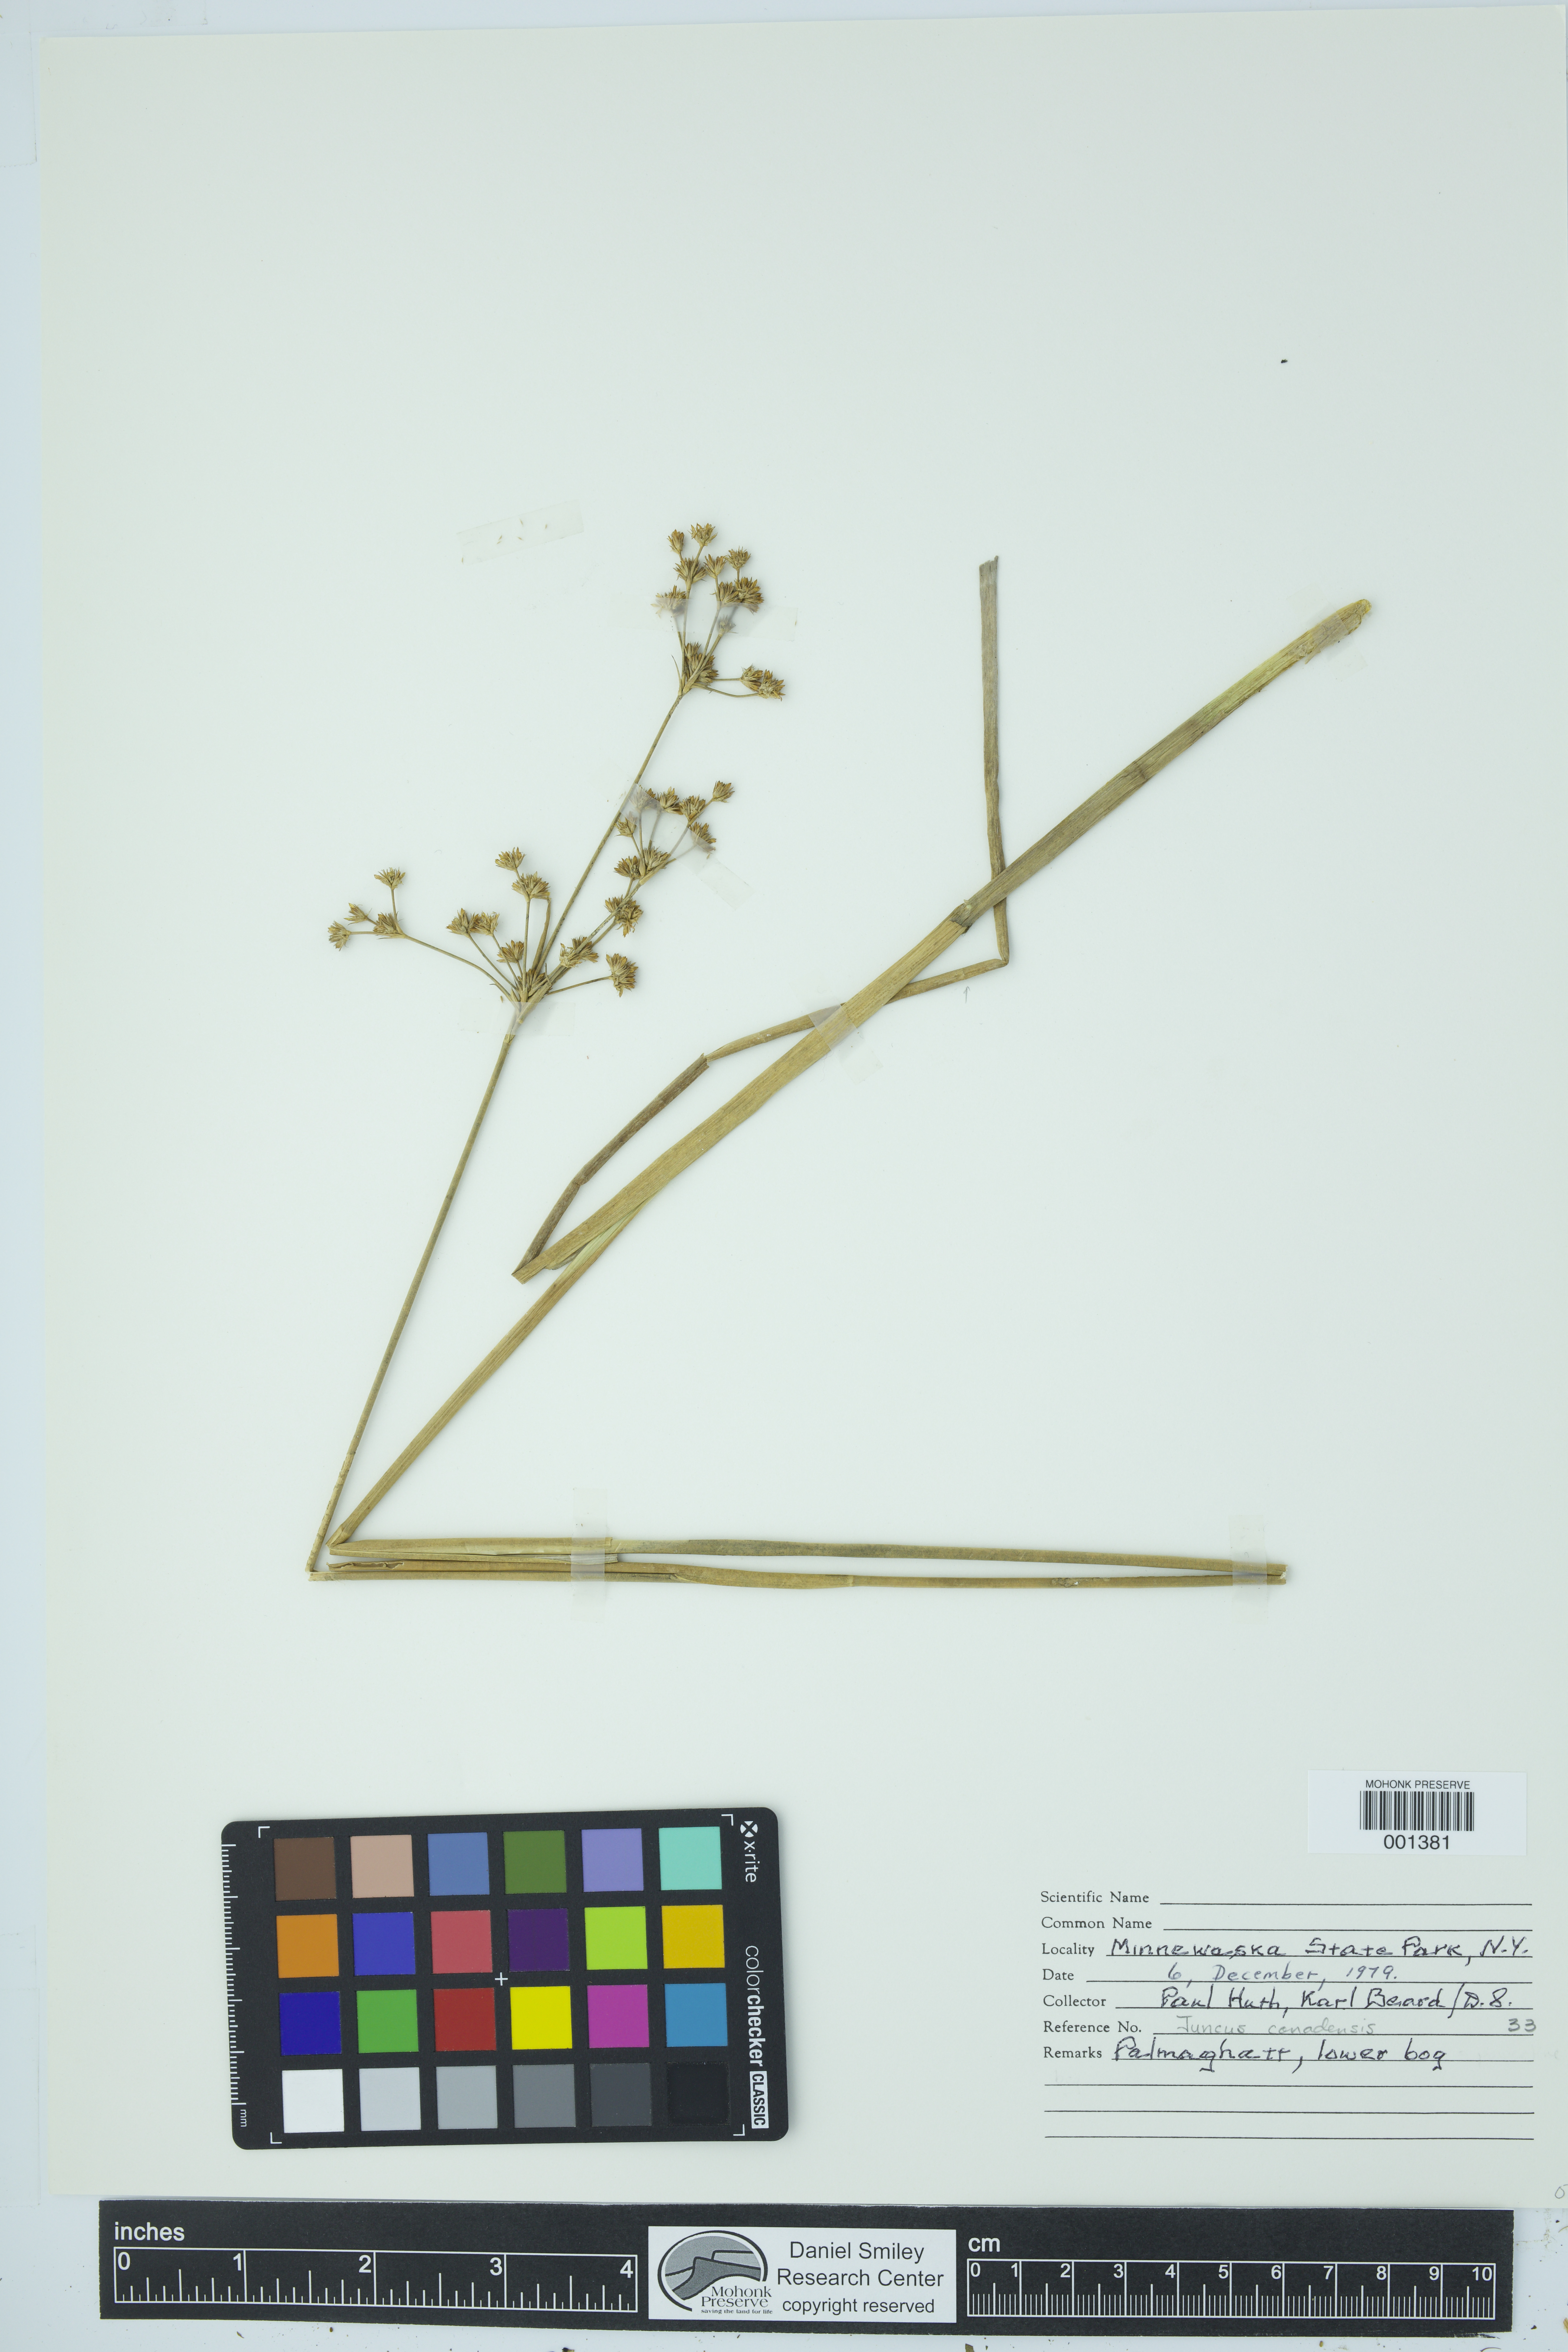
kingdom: Plantae
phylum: Tracheophyta
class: Liliopsida
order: Poales
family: Juncaceae
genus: Juncus
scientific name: Juncus canadensis
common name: Canada rush
